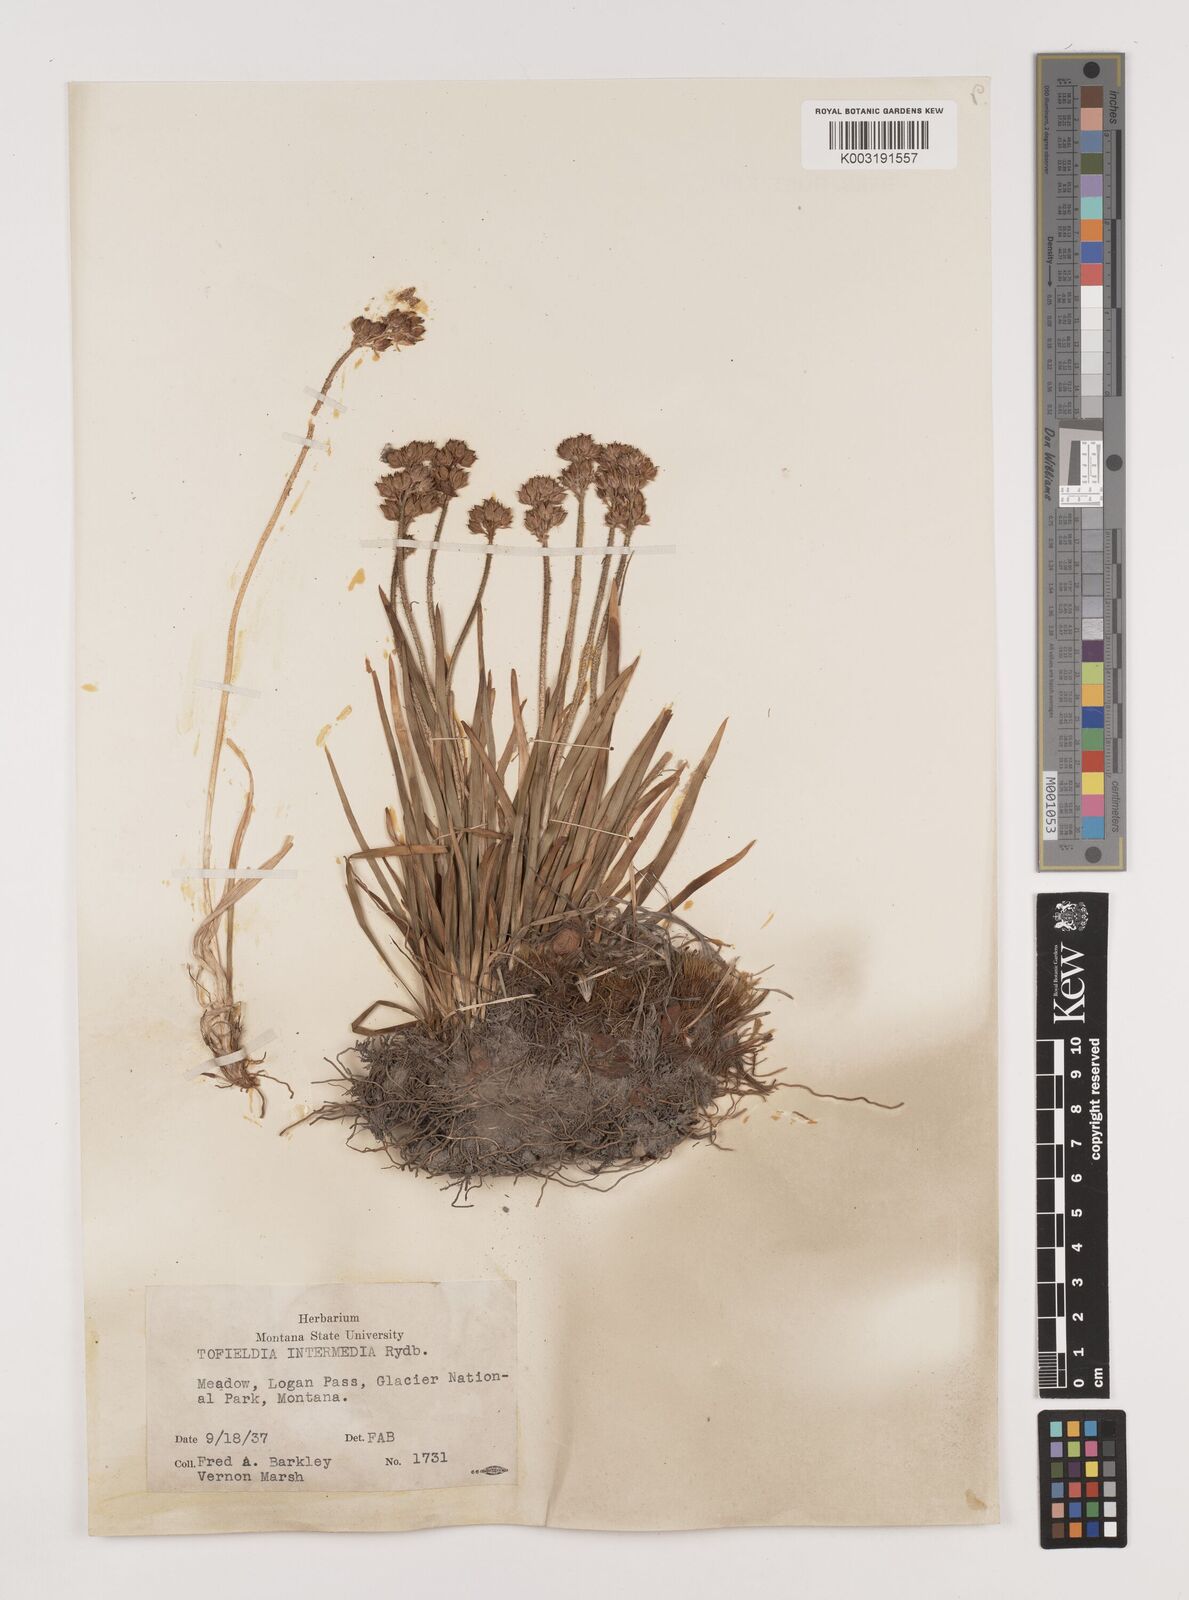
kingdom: Plantae
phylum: Tracheophyta
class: Liliopsida
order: Alismatales
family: Tofieldiaceae
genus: Triantha
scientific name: Triantha occidentalis
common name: Western false asphodel
